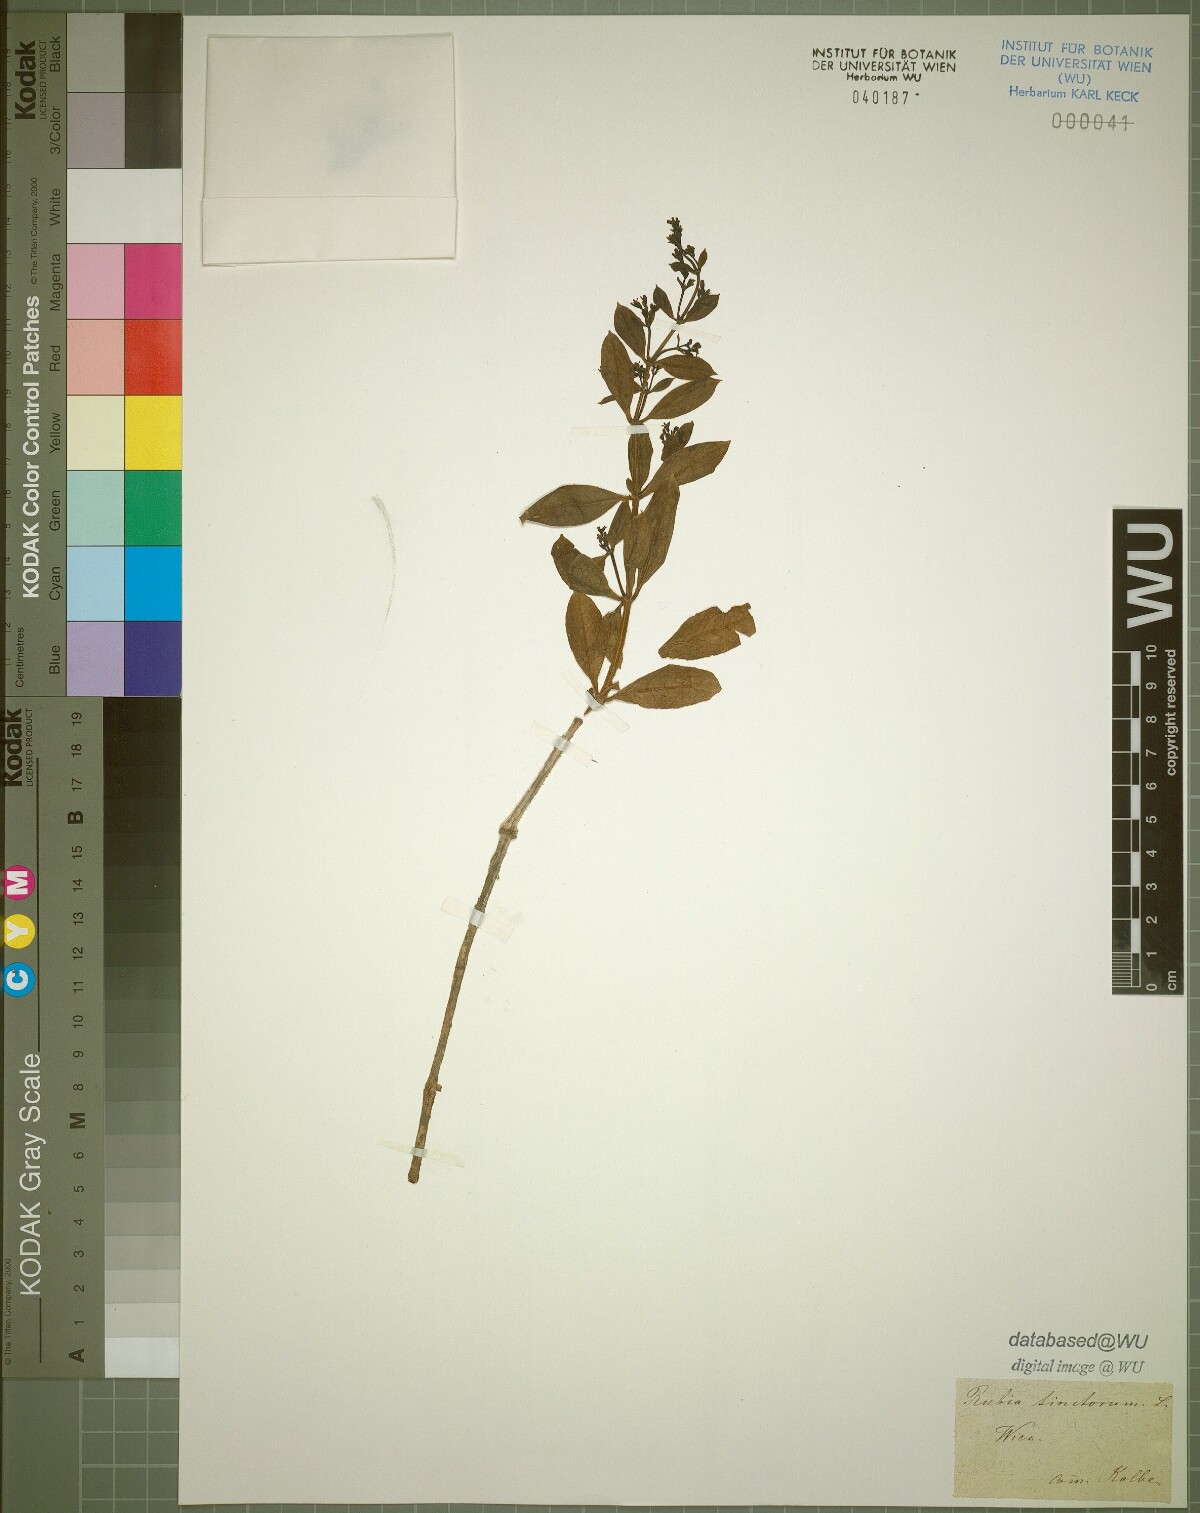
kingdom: Plantae
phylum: Tracheophyta
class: Magnoliopsida
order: Gentianales
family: Rubiaceae
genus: Rubia
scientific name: Rubia tinctorum
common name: Dyer's madder
